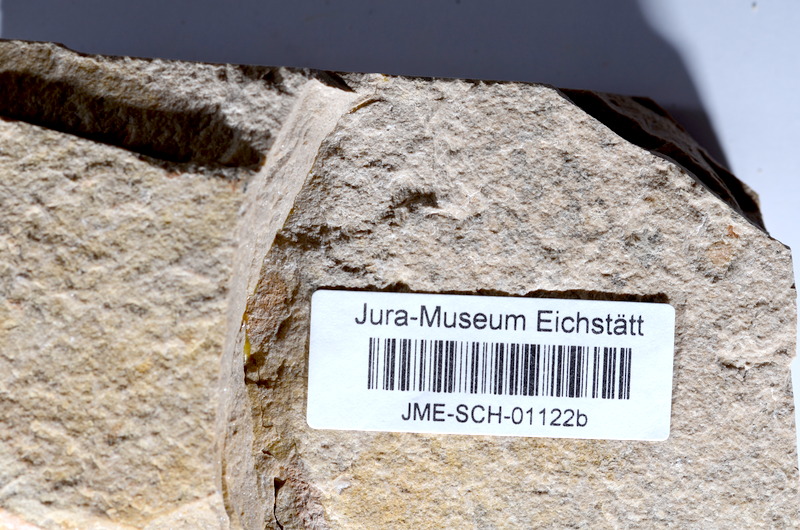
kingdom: Animalia
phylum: Chordata
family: Ascalaboidae
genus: Tharsis
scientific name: Tharsis dubius
